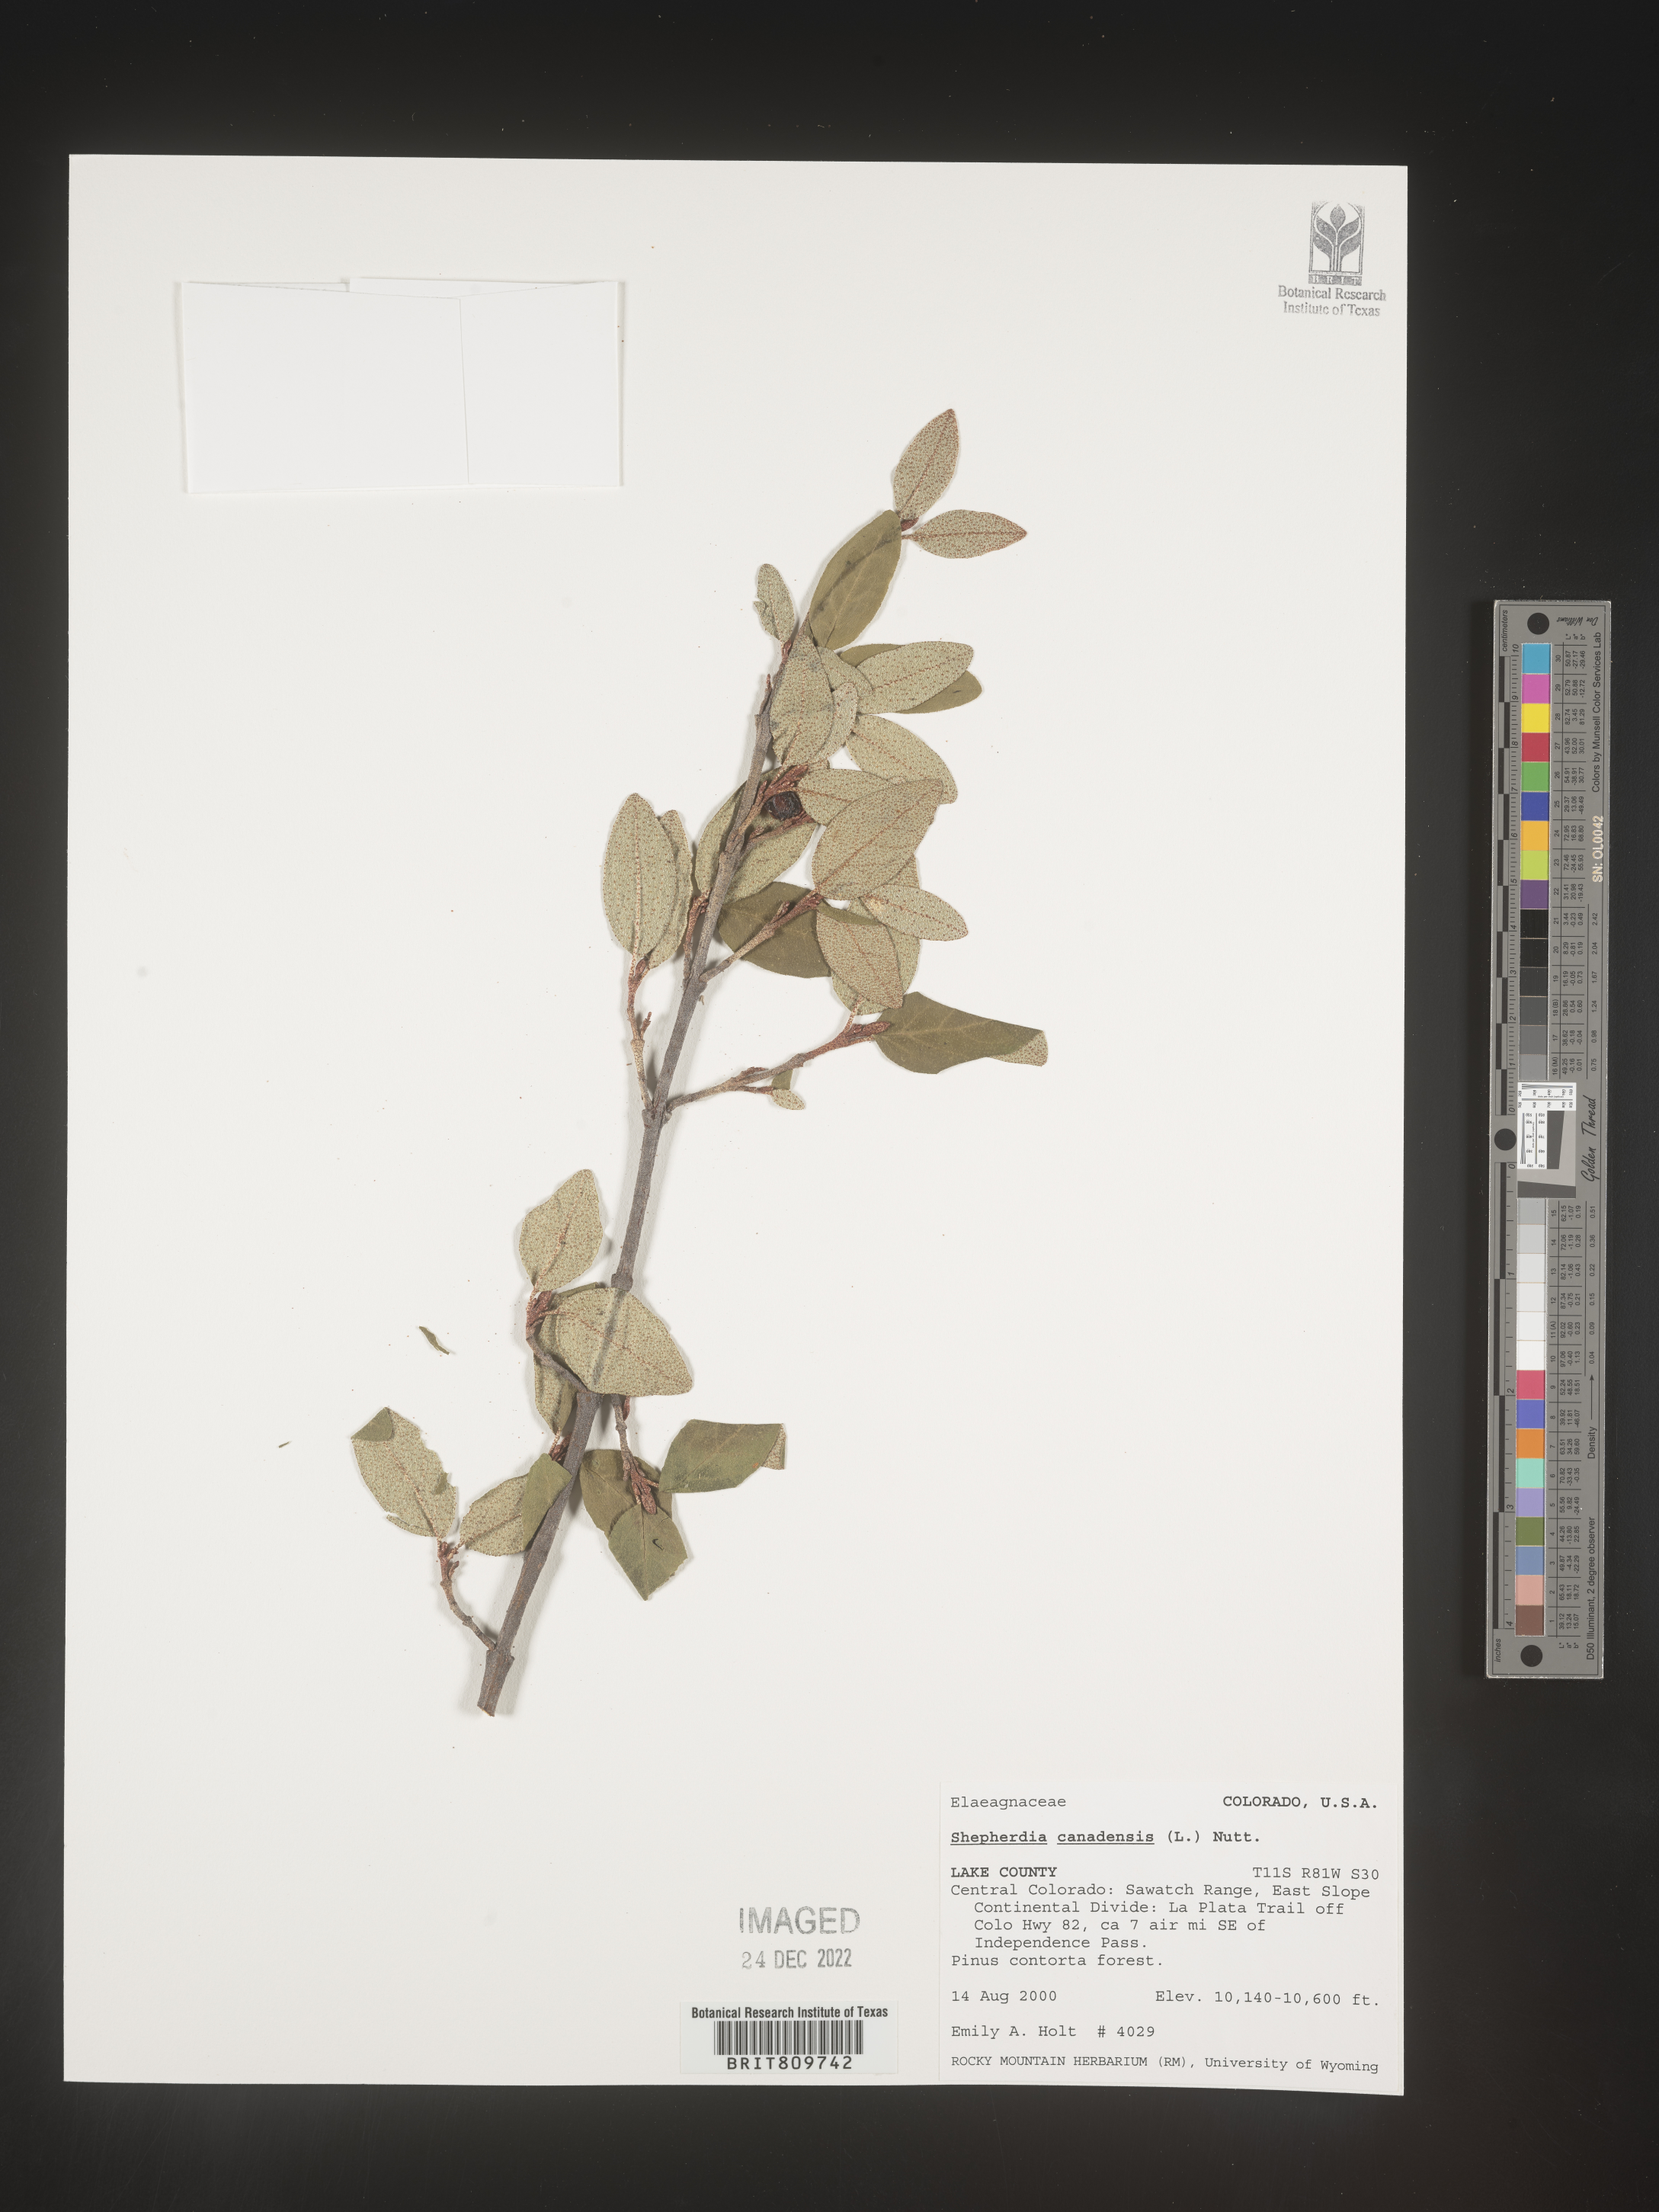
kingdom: Plantae
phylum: Tracheophyta
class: Magnoliopsida
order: Rosales
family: Elaeagnaceae
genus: Shepherdia
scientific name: Shepherdia canadensis
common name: Soapberry
